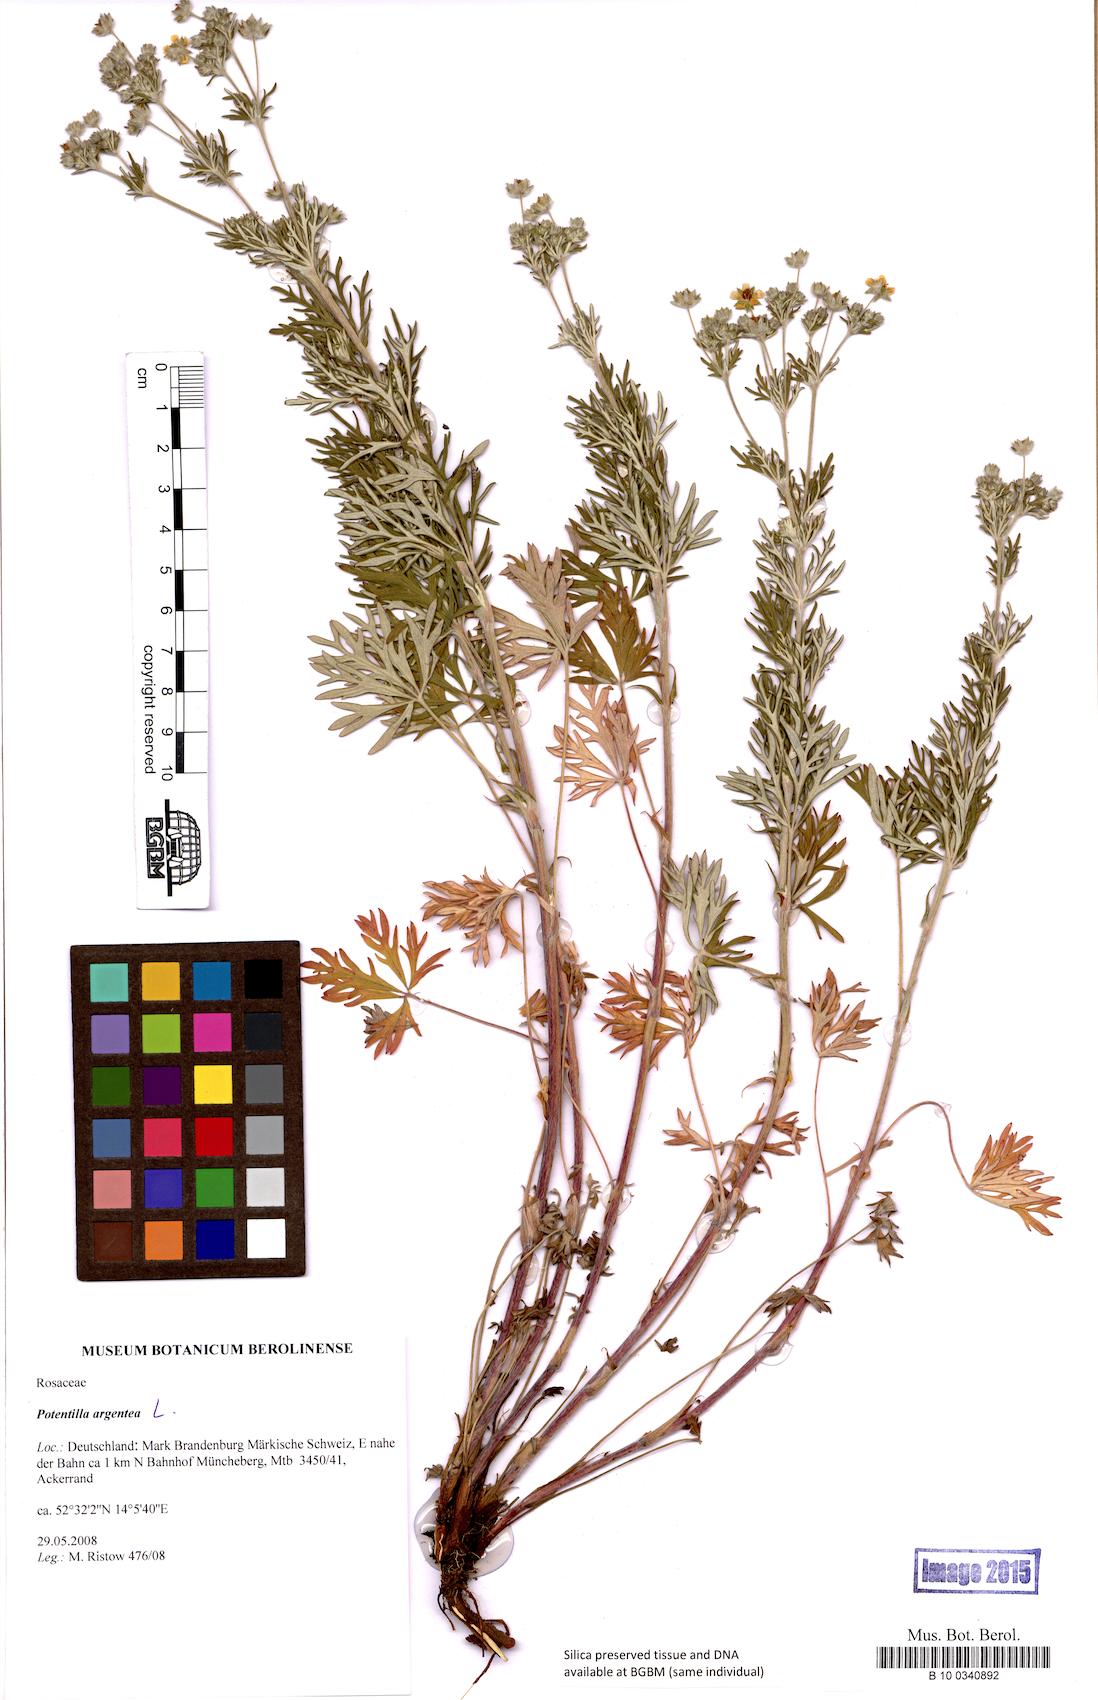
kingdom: Plantae
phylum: Tracheophyta
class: Magnoliopsida
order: Rosales
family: Rosaceae
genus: Potentilla
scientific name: Potentilla argentea
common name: Hoary cinquefoil
